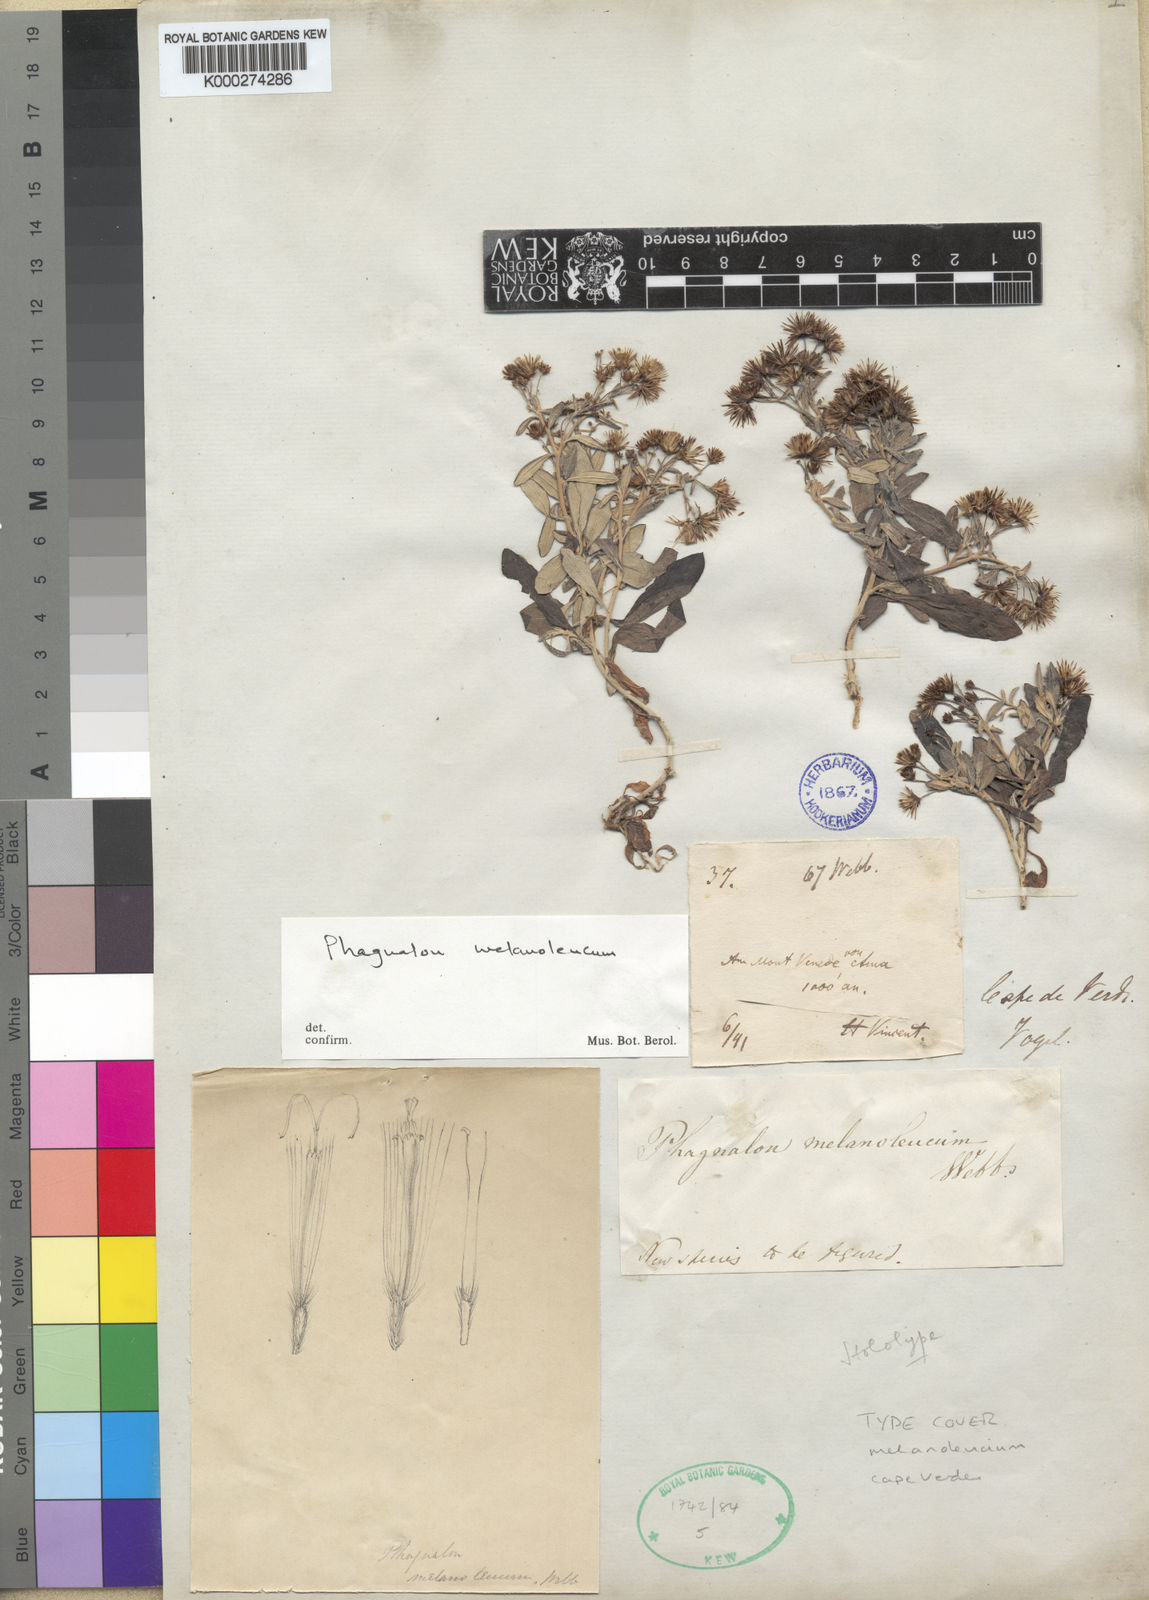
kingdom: Plantae
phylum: Tracheophyta
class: Magnoliopsida
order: Asterales
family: Asteraceae
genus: Phagnalon
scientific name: Phagnalon melanoleucum
